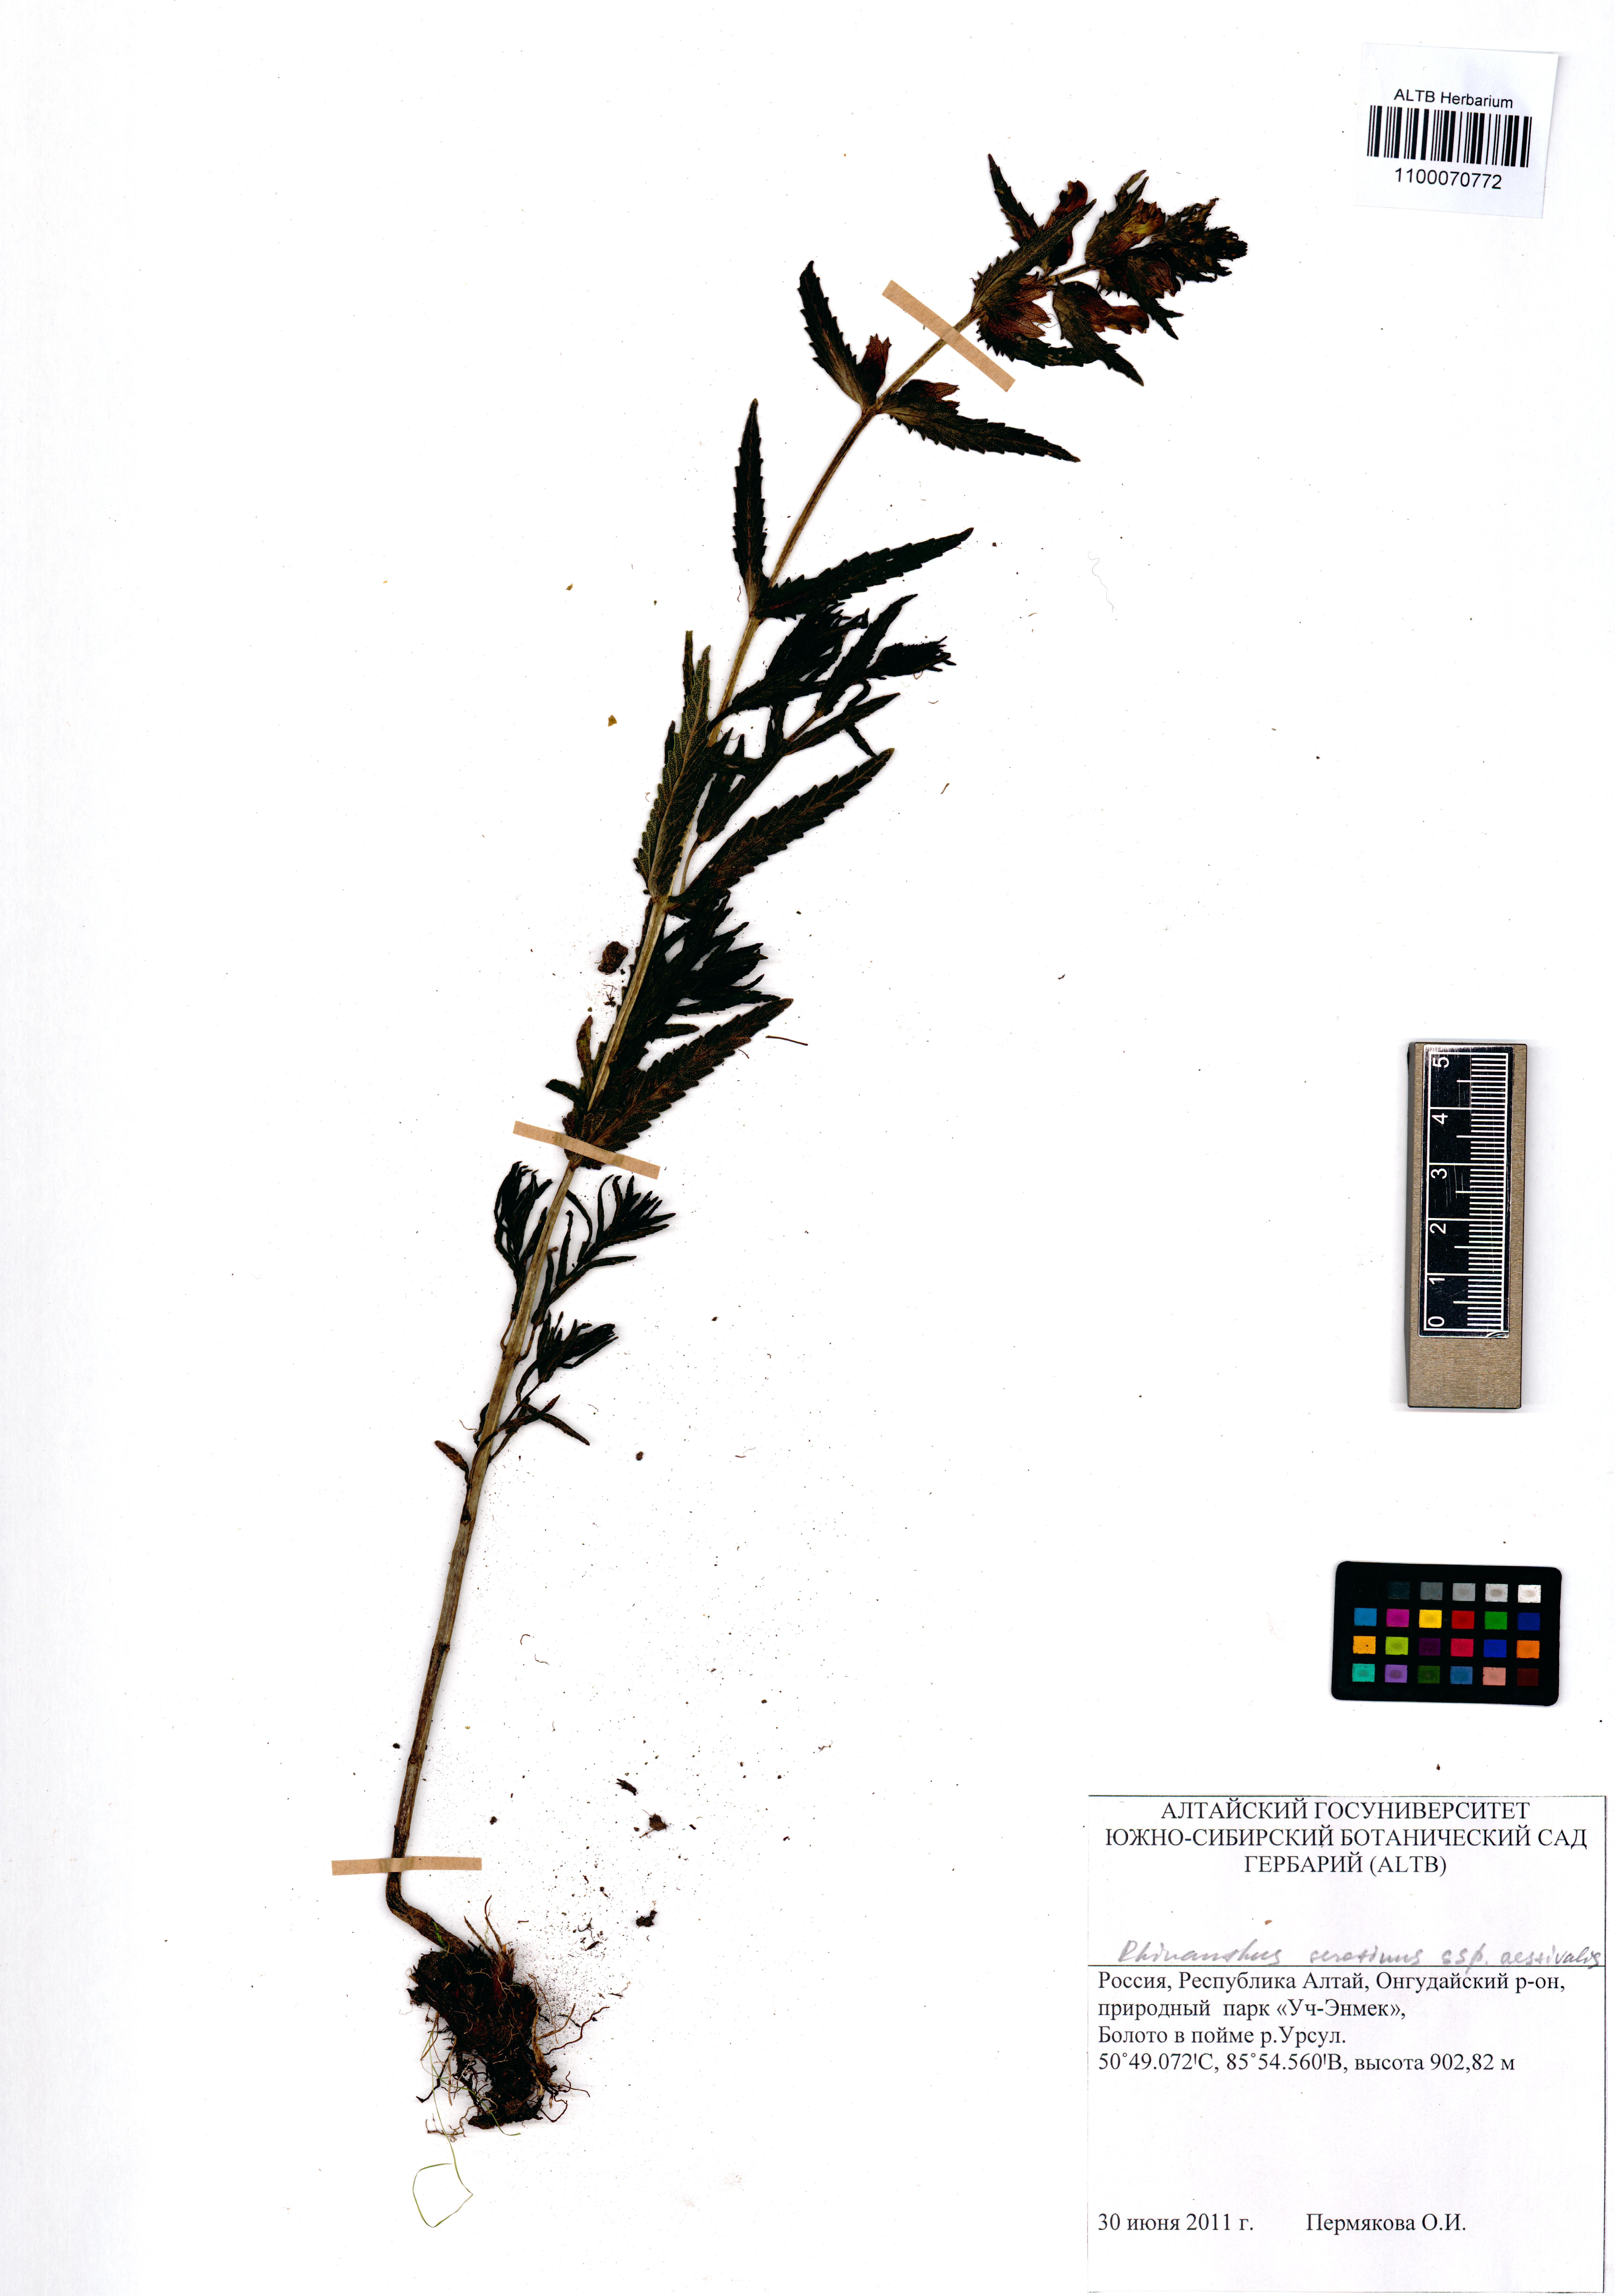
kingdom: Plantae
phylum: Tracheophyta
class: Magnoliopsida
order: Lamiales
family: Orobanchaceae
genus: Rhinanthus
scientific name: Rhinanthus serotinus
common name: Late-flowering yellow rattle
